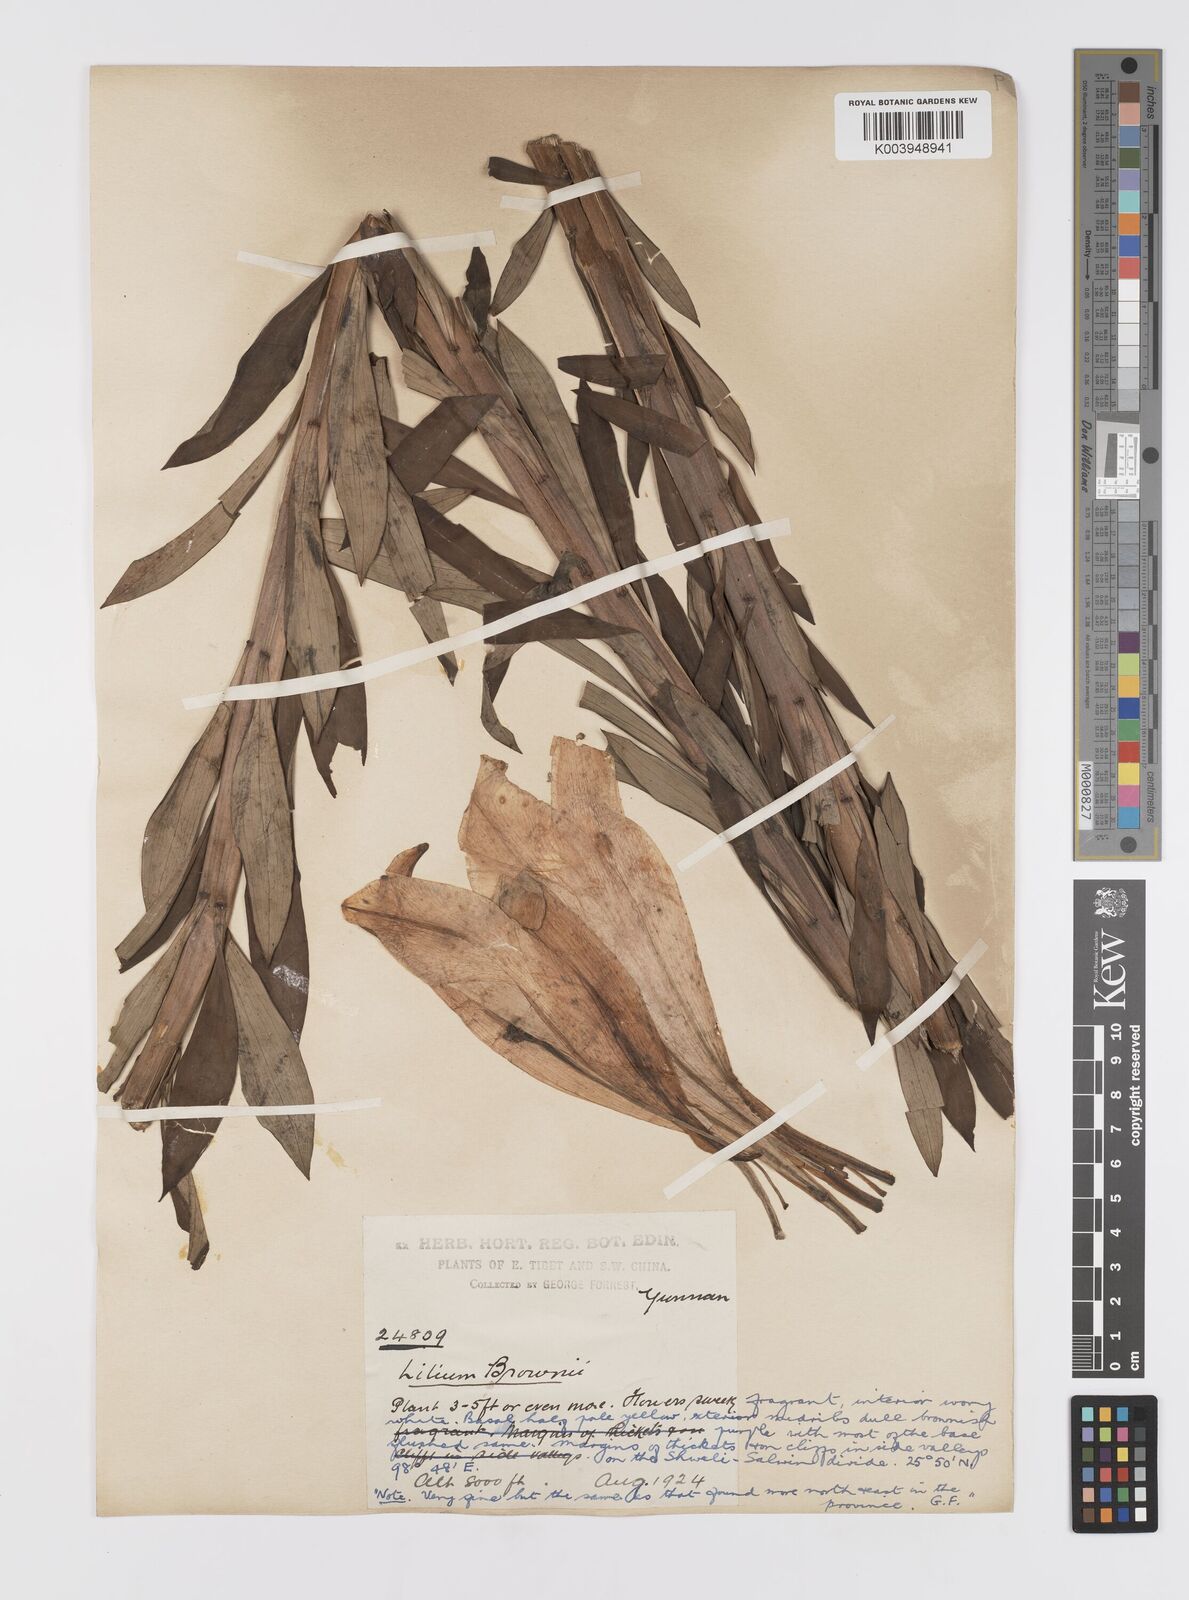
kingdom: Plantae
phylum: Tracheophyta
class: Liliopsida
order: Liliales
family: Liliaceae
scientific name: Liliaceae
